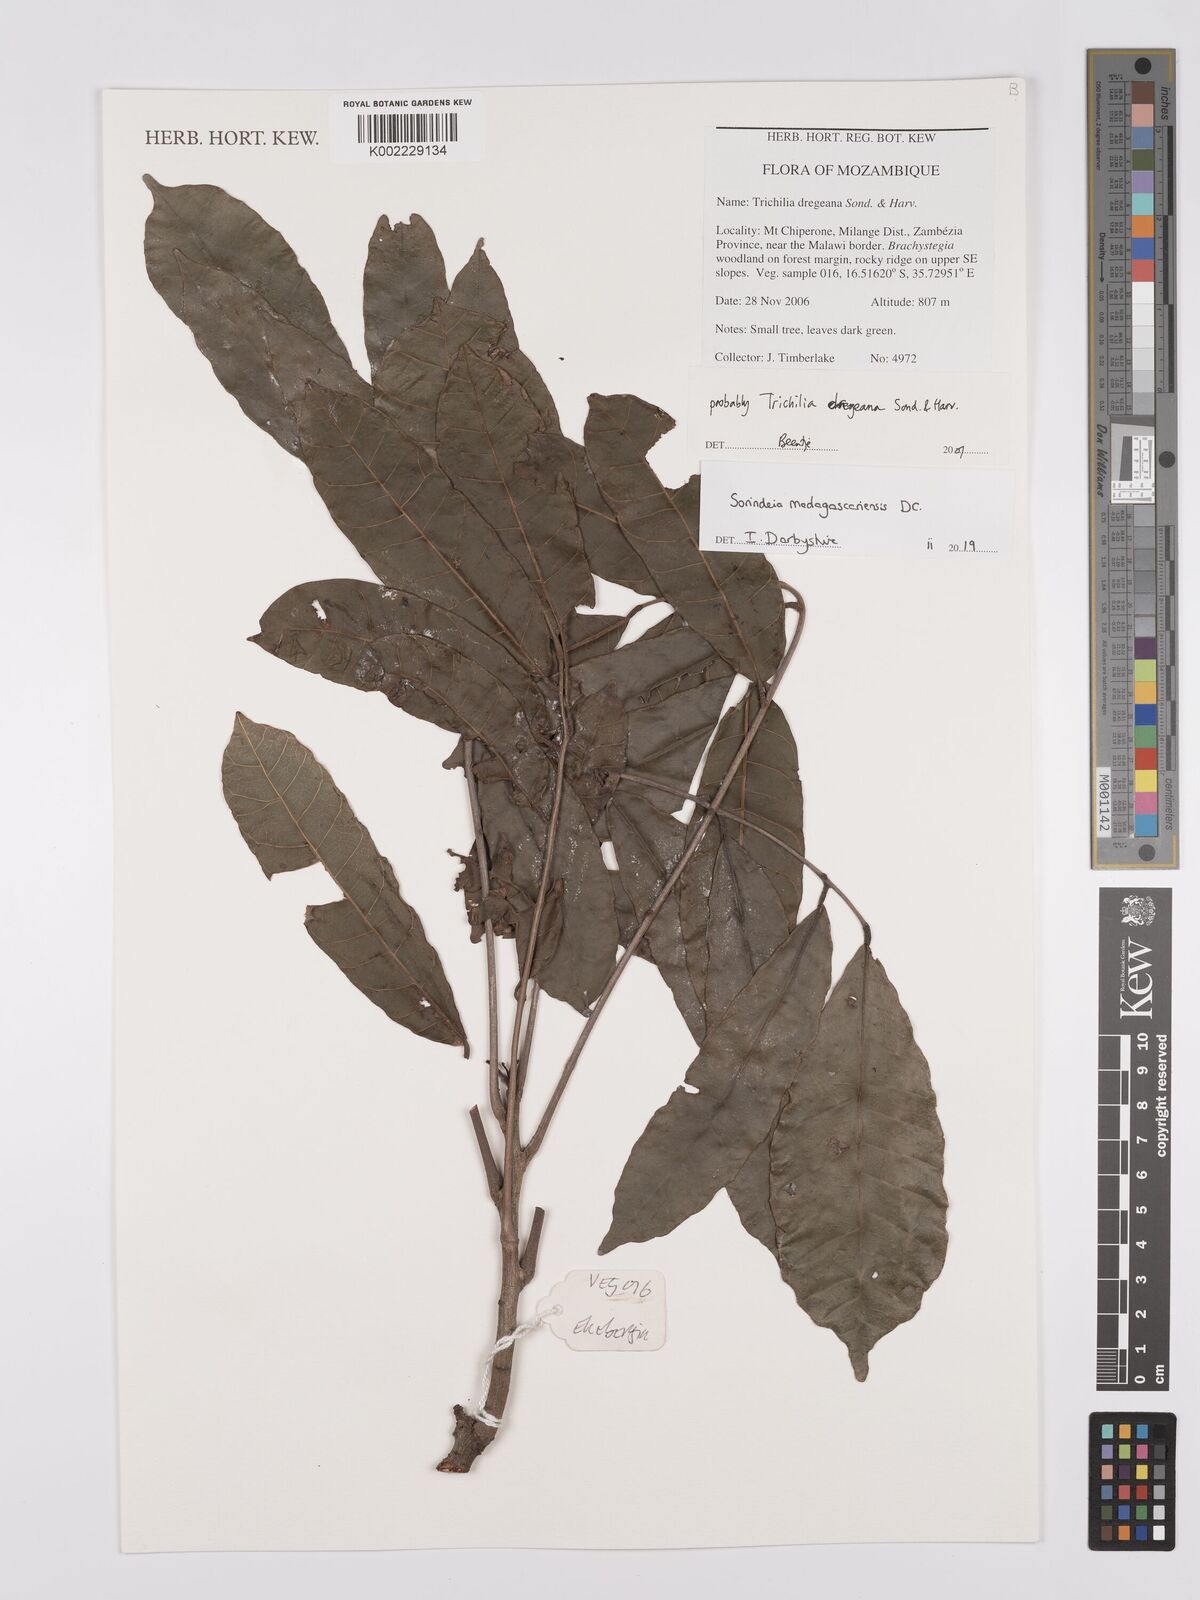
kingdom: Plantae
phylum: Tracheophyta
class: Magnoliopsida
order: Sapindales
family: Anacardiaceae
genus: Sorindeia
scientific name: Sorindeia madagascariensis
